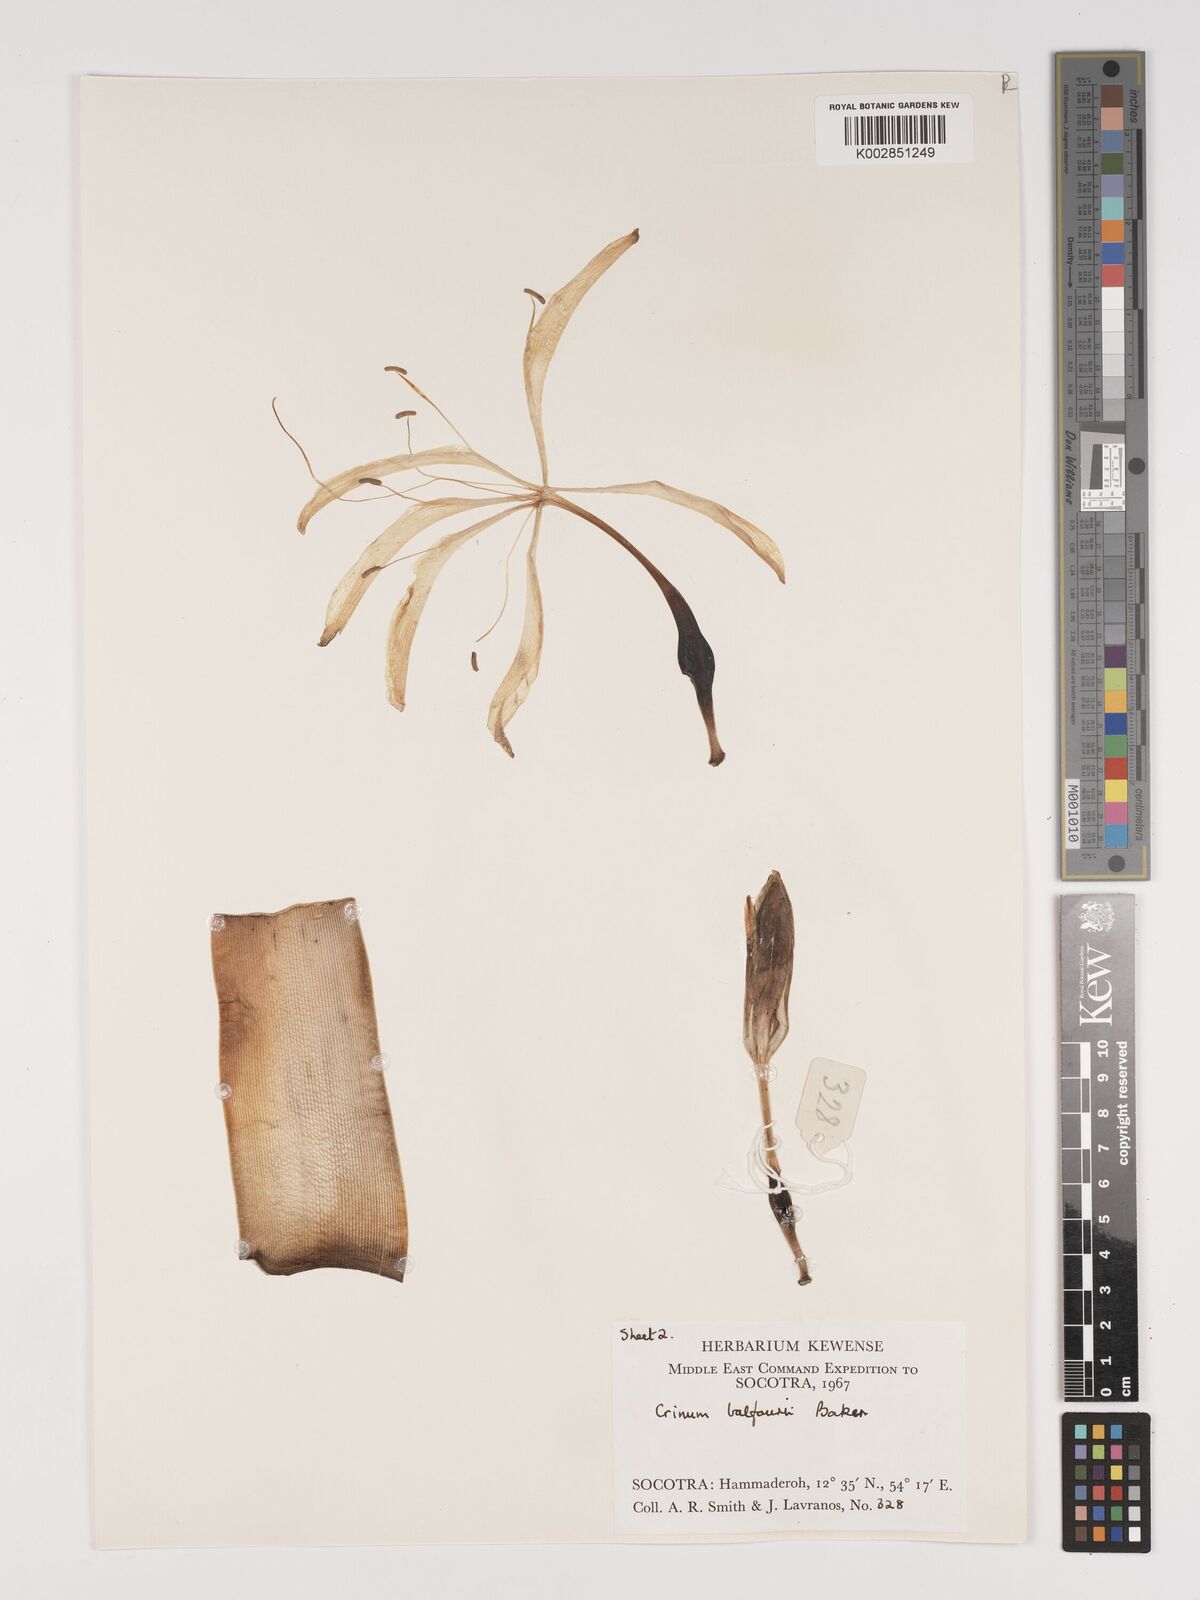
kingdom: Plantae
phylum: Tracheophyta
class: Liliopsida
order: Asparagales
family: Amaryllidaceae
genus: Crinum
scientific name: Crinum balfourii
